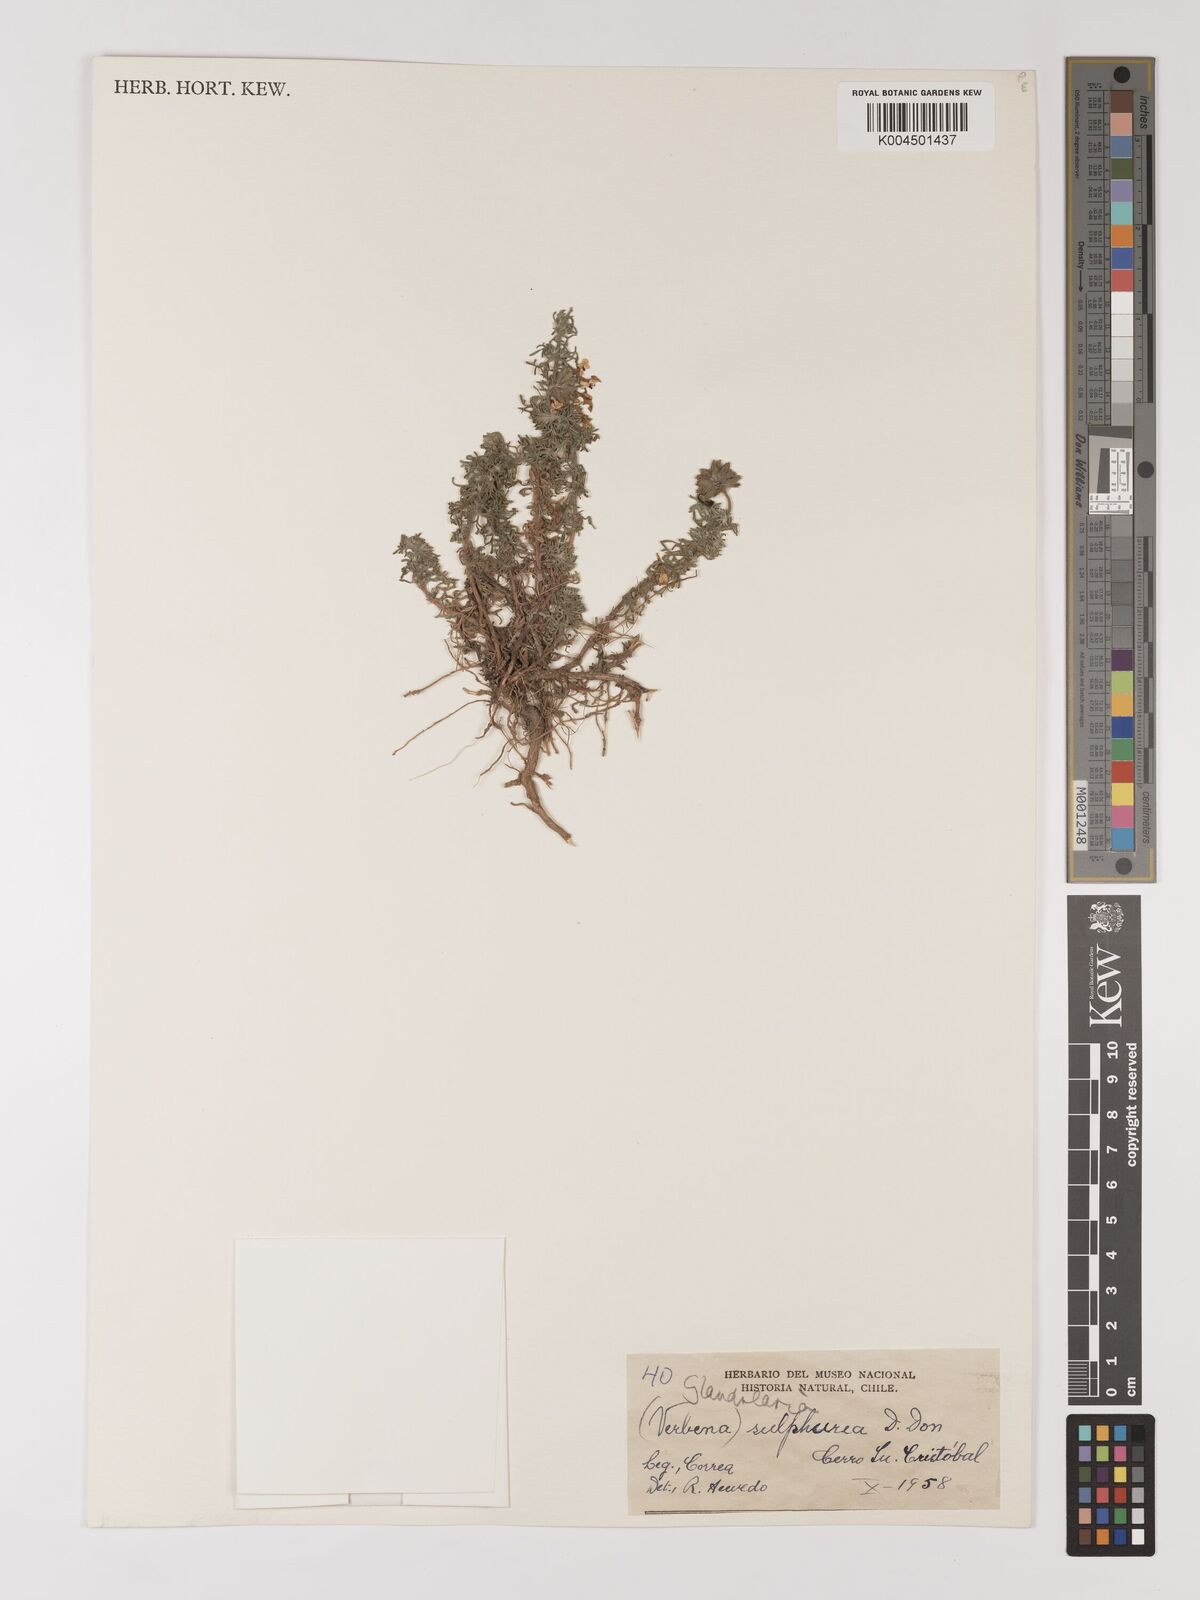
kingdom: Plantae
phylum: Tracheophyta
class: Magnoliopsida
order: Lamiales
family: Verbenaceae
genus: Verbena
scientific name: Verbena sulphurea
